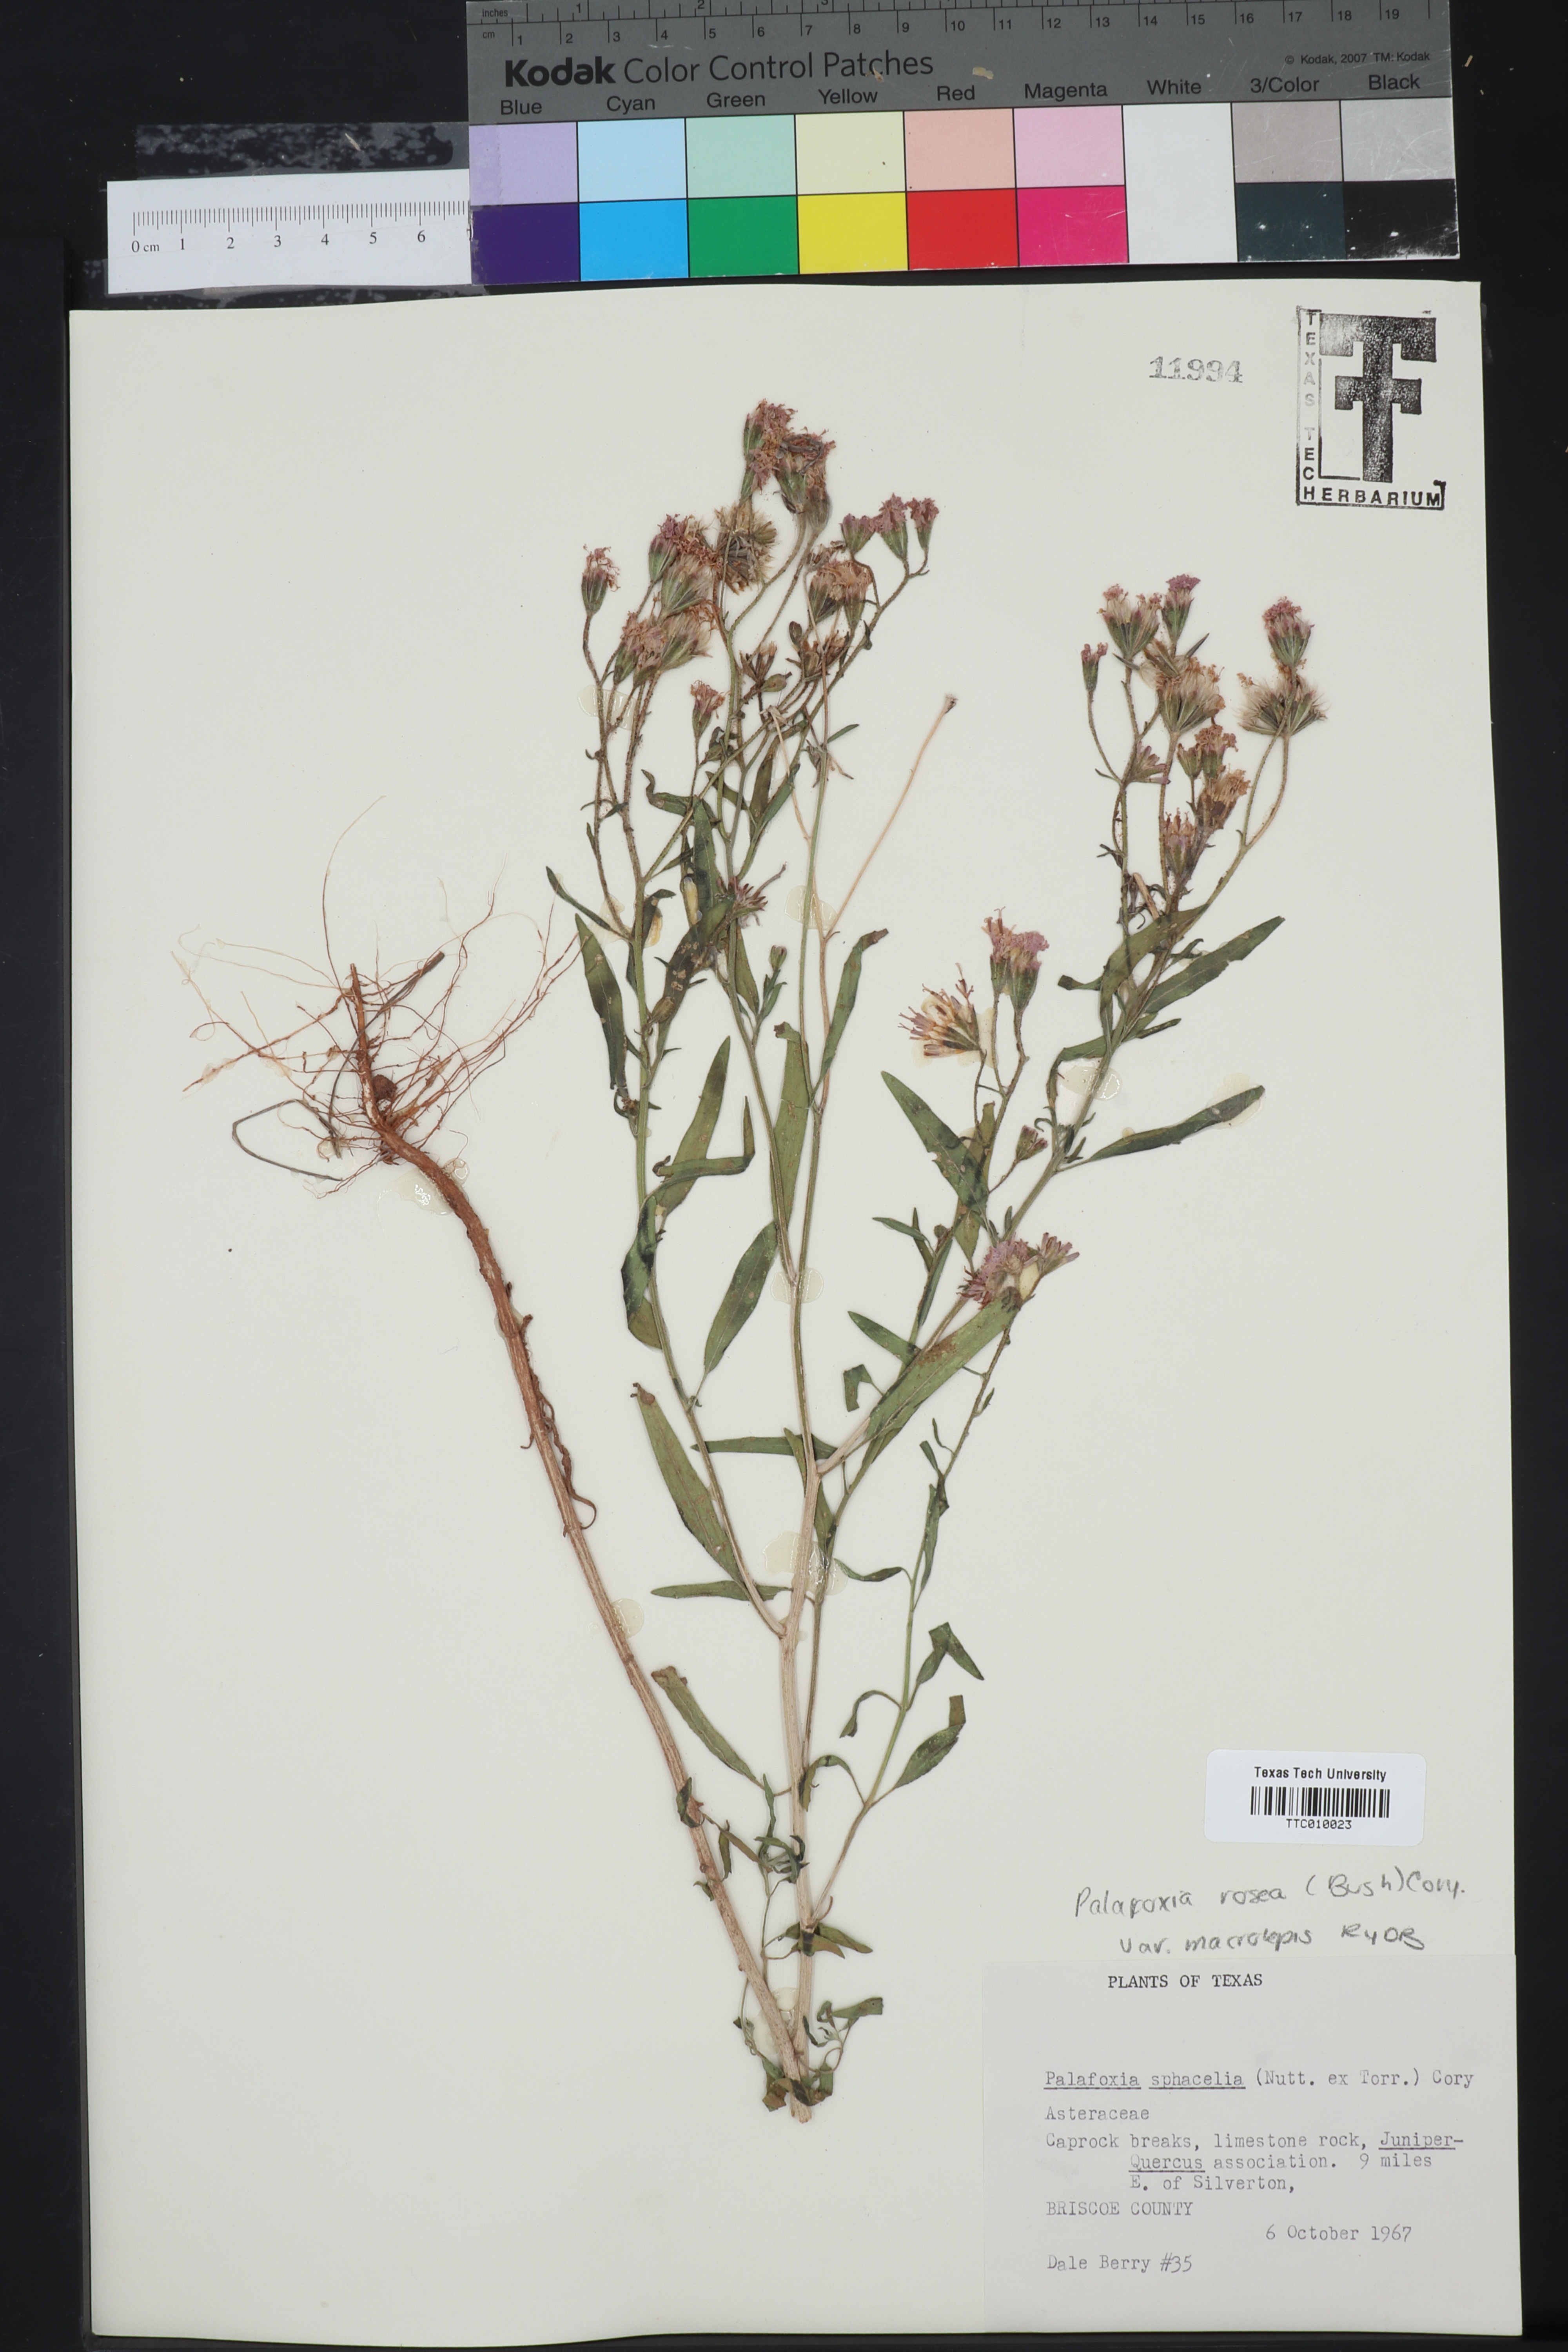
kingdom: Plantae
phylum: Tracheophyta
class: Magnoliopsida
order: Asterales
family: Asteraceae
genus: Palafoxia
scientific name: Palafoxia rosea
